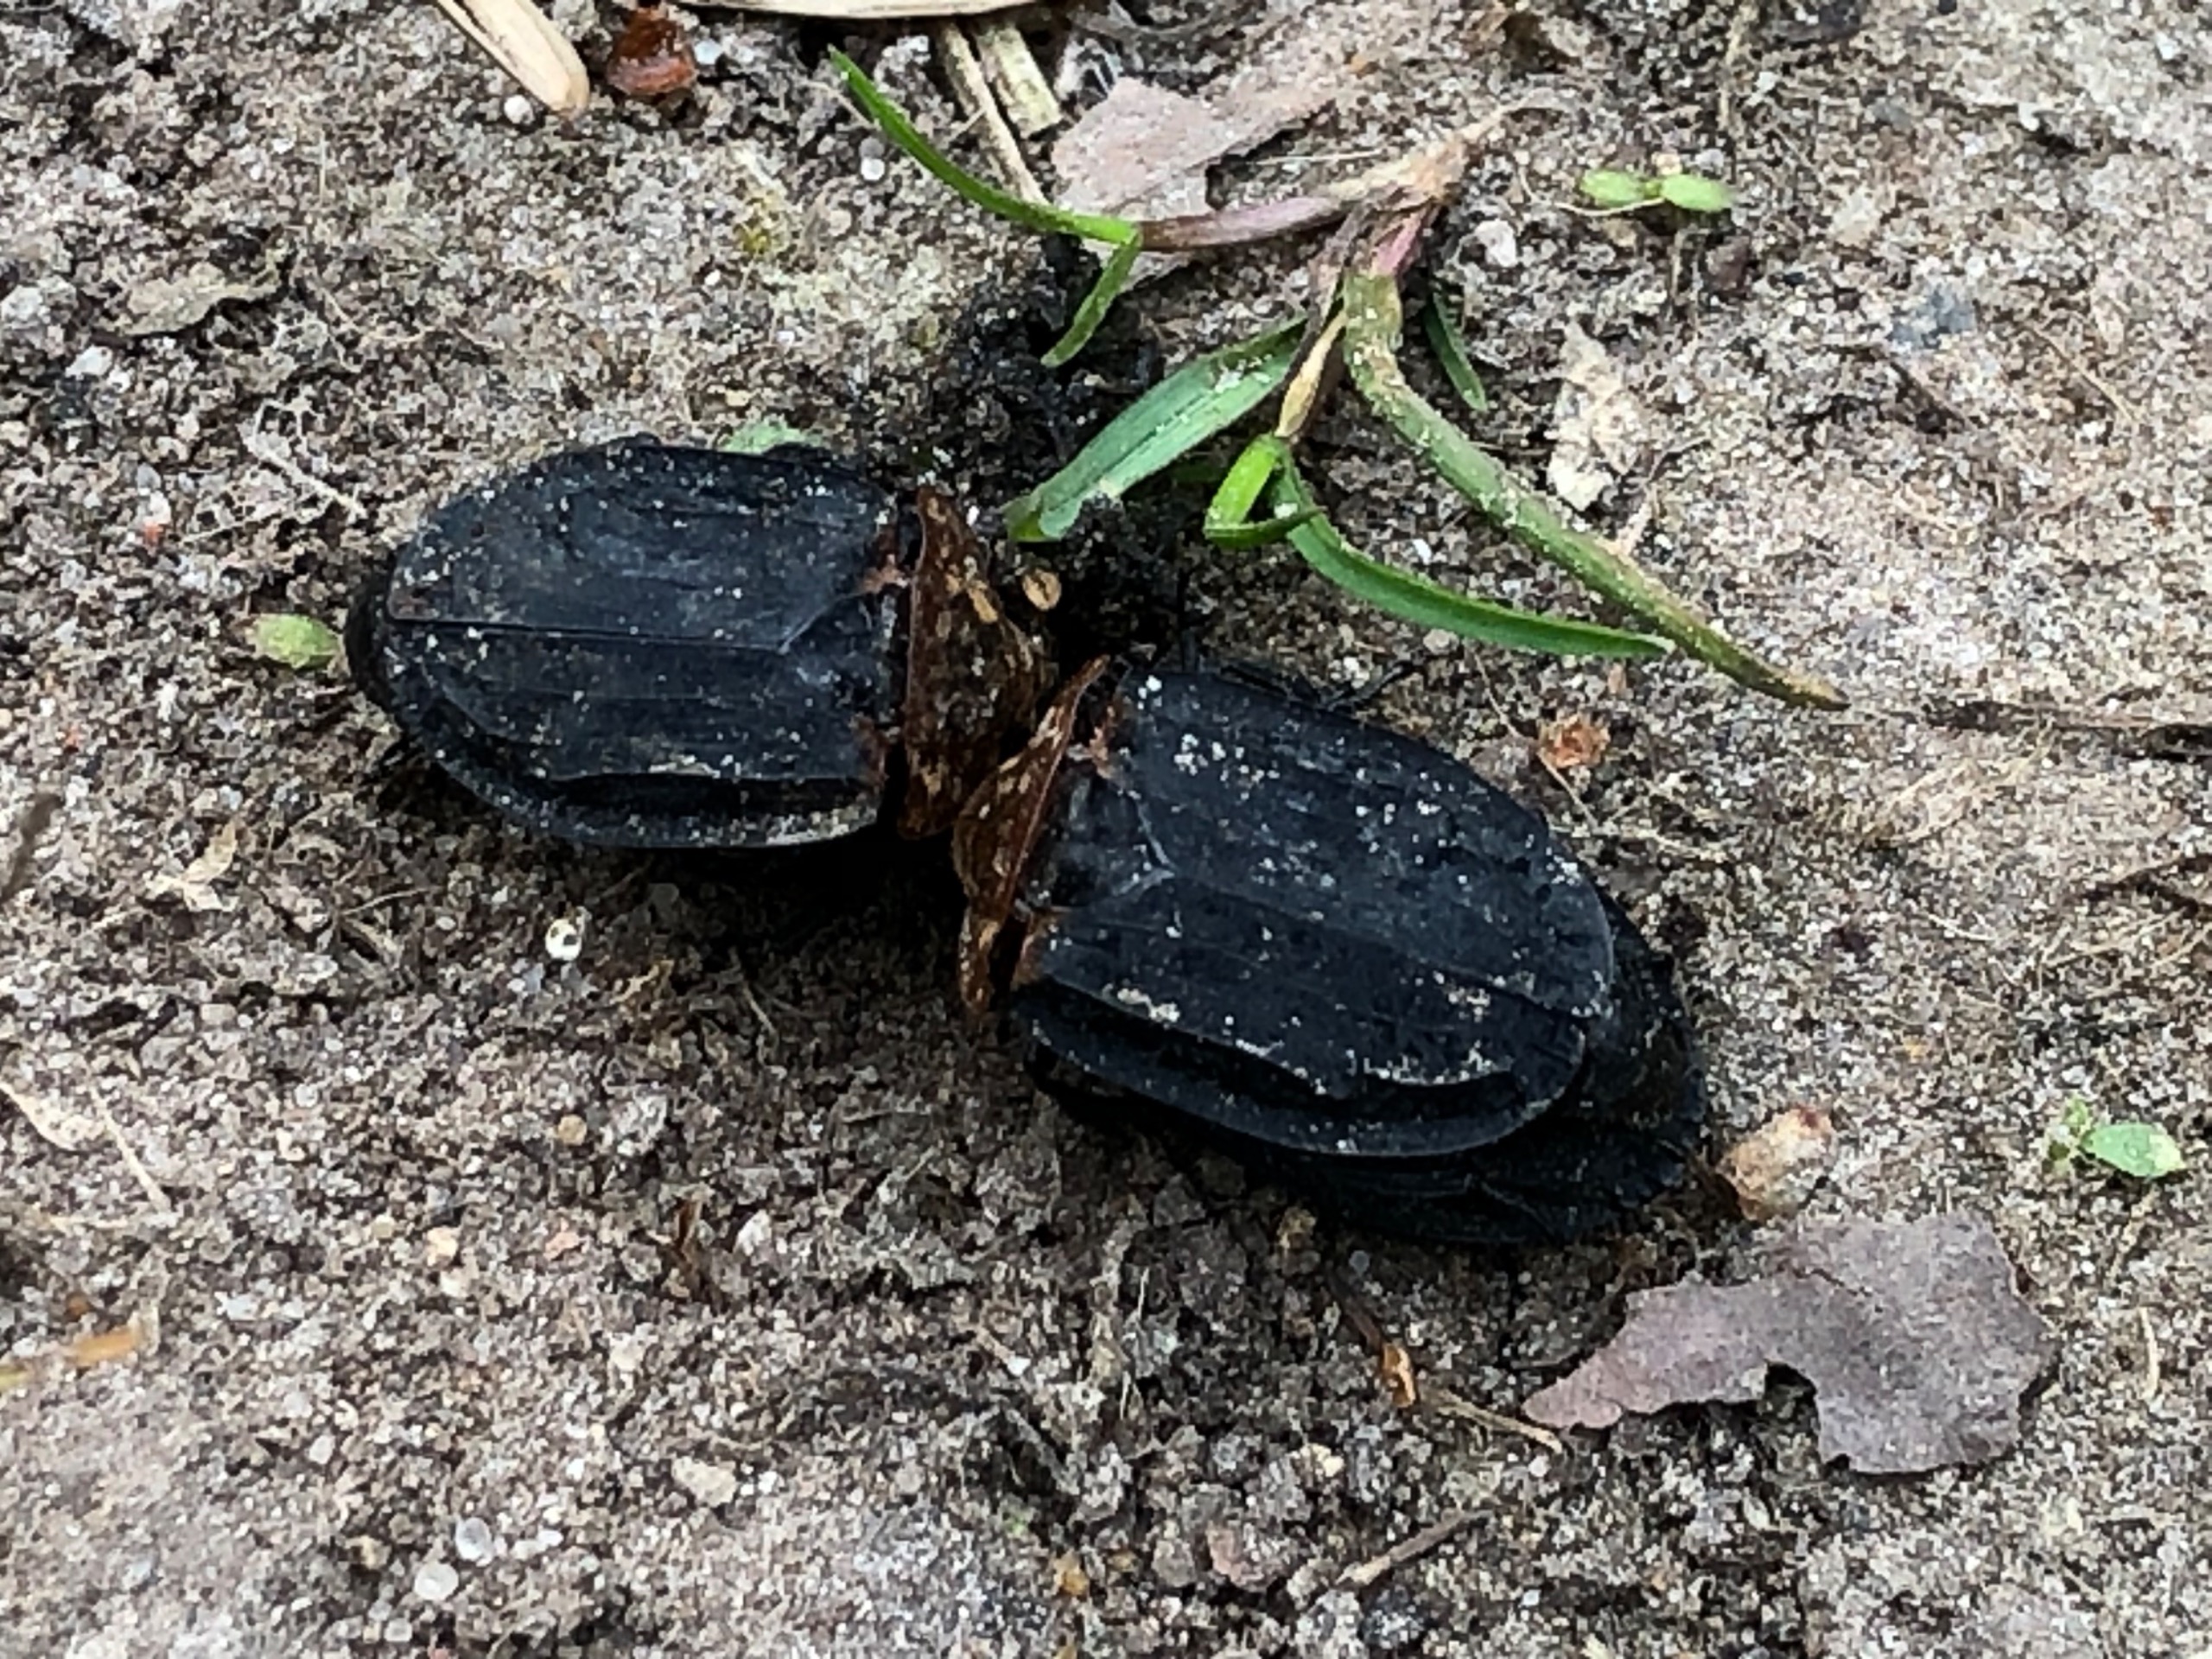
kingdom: Animalia
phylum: Arthropoda
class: Insecta
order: Coleoptera
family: Staphylinidae
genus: Oiceoptoma
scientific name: Oiceoptoma thoracicum
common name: Rødbrystet ådselbille
